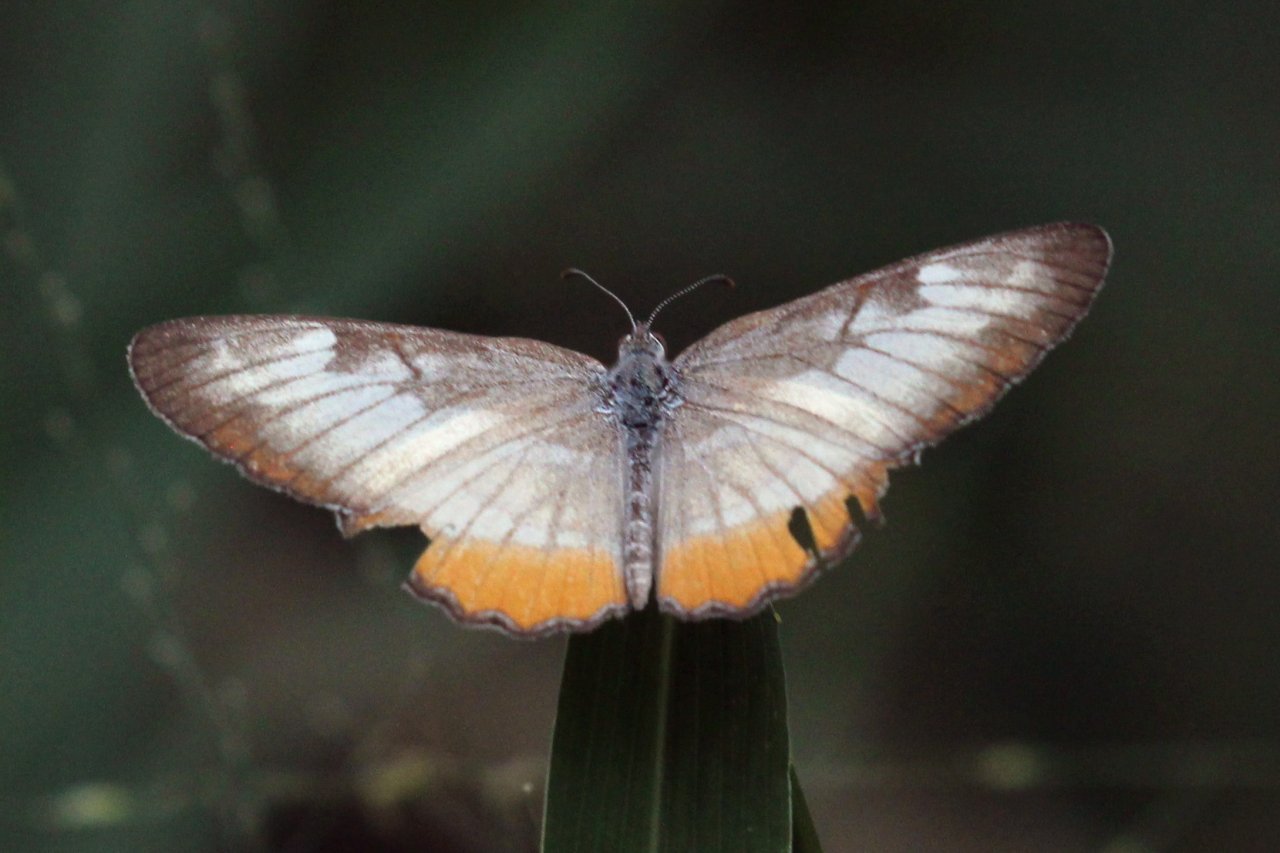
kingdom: Animalia
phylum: Arthropoda
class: Insecta
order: Lepidoptera
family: Nymphalidae
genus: Mestra
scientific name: Mestra amymone
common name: Common Mestra
